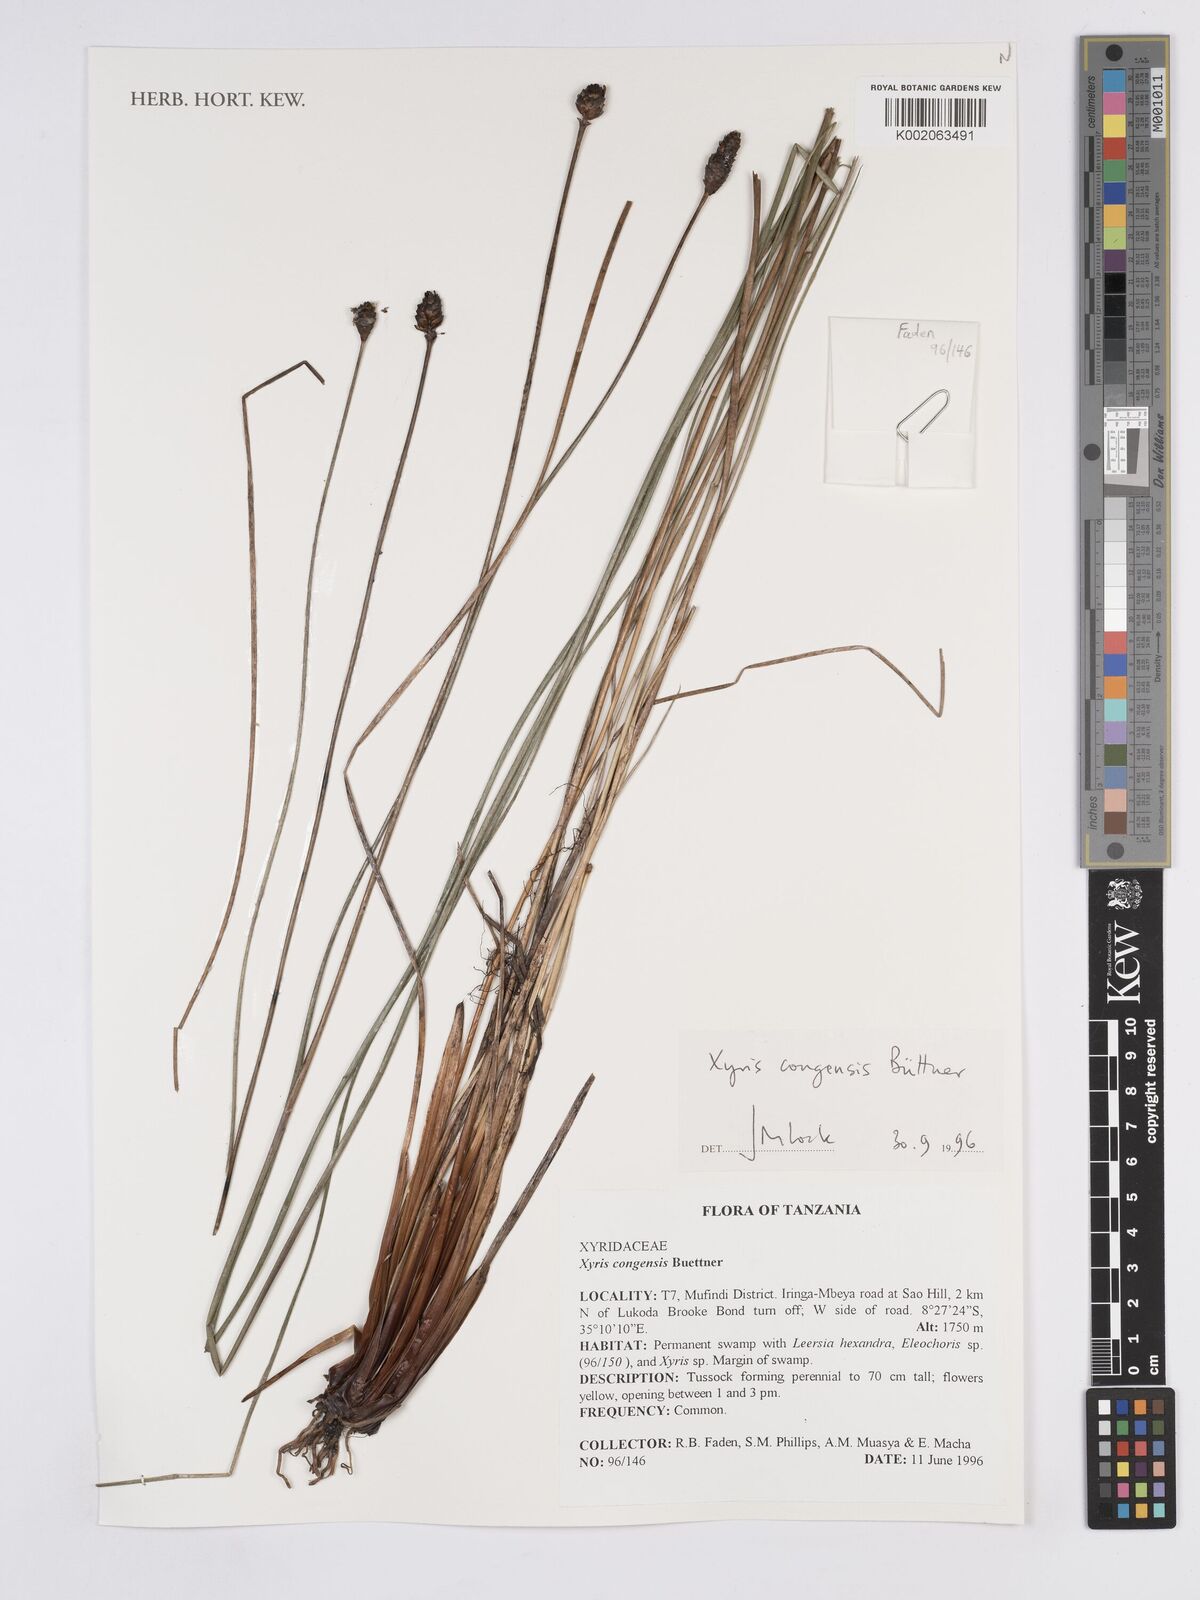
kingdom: Plantae
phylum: Tracheophyta
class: Liliopsida
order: Poales
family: Xyridaceae
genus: Xyris
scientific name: Xyris congensis
